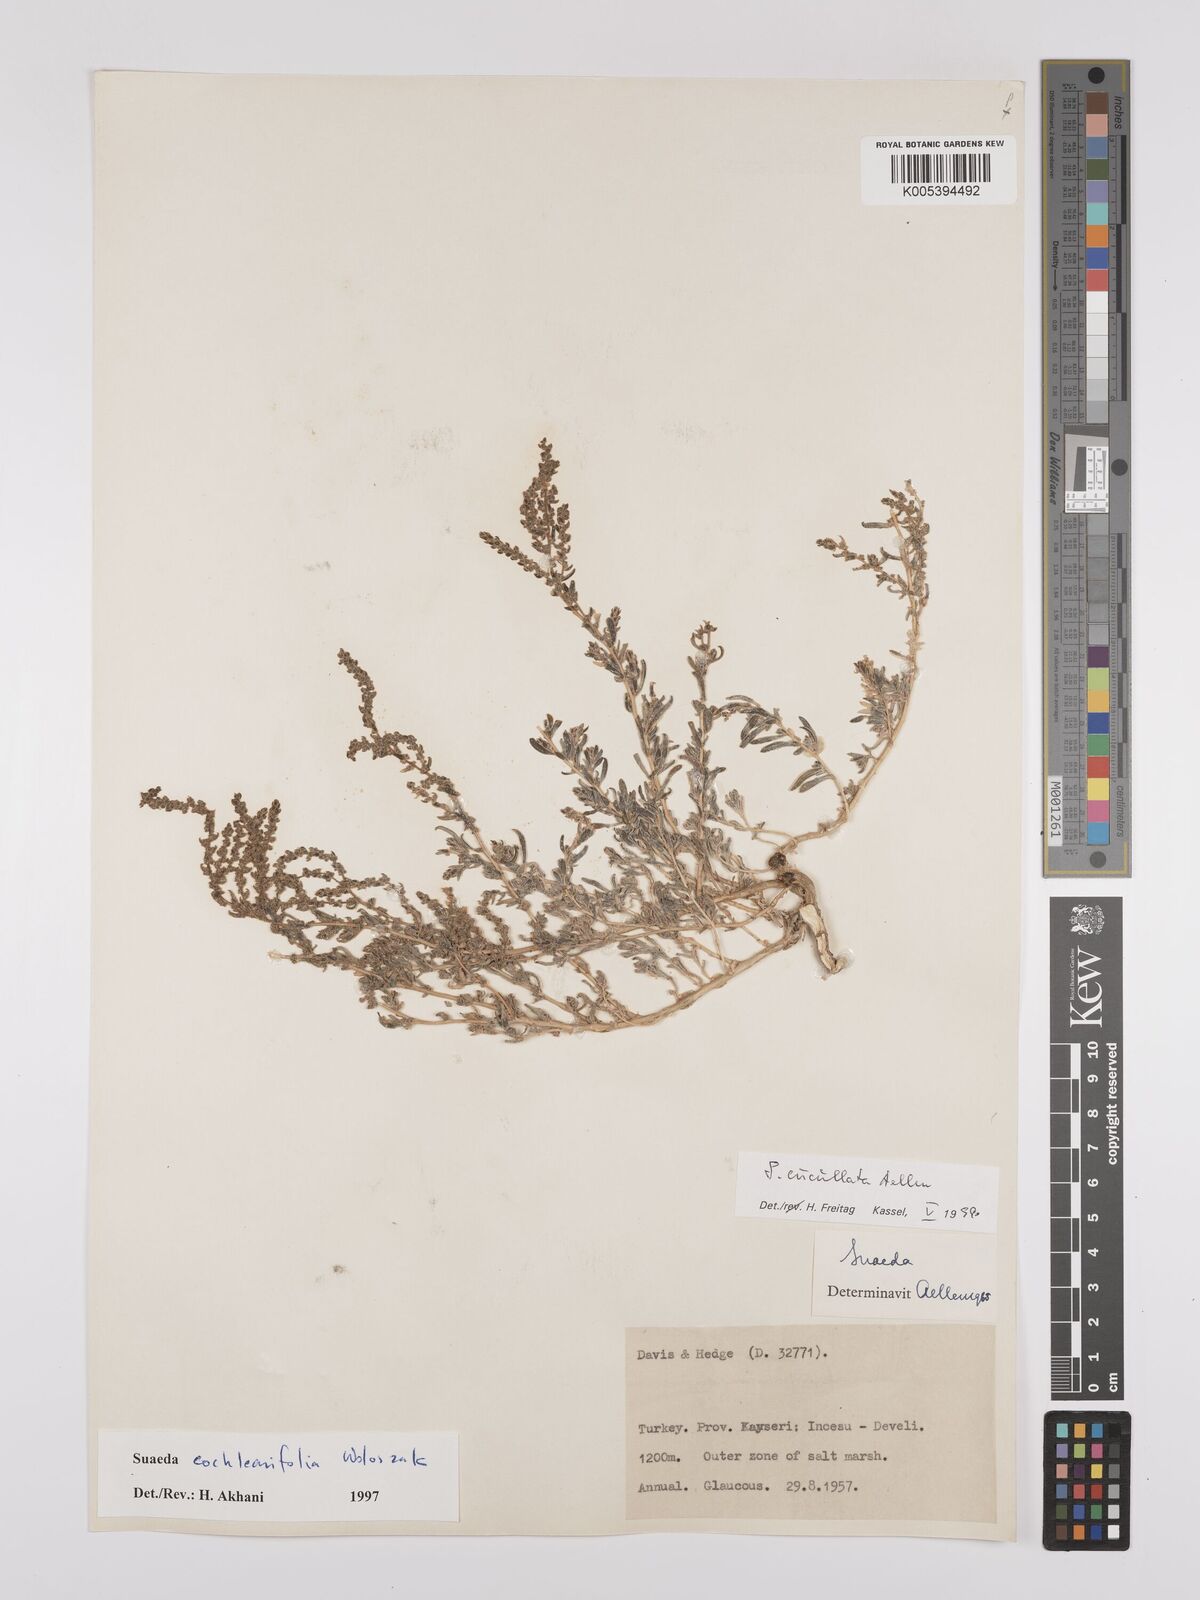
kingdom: Plantae
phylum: Tracheophyta
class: Magnoliopsida
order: Caryophyllales
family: Amaranthaceae
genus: Suaeda
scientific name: Suaeda cucullata
